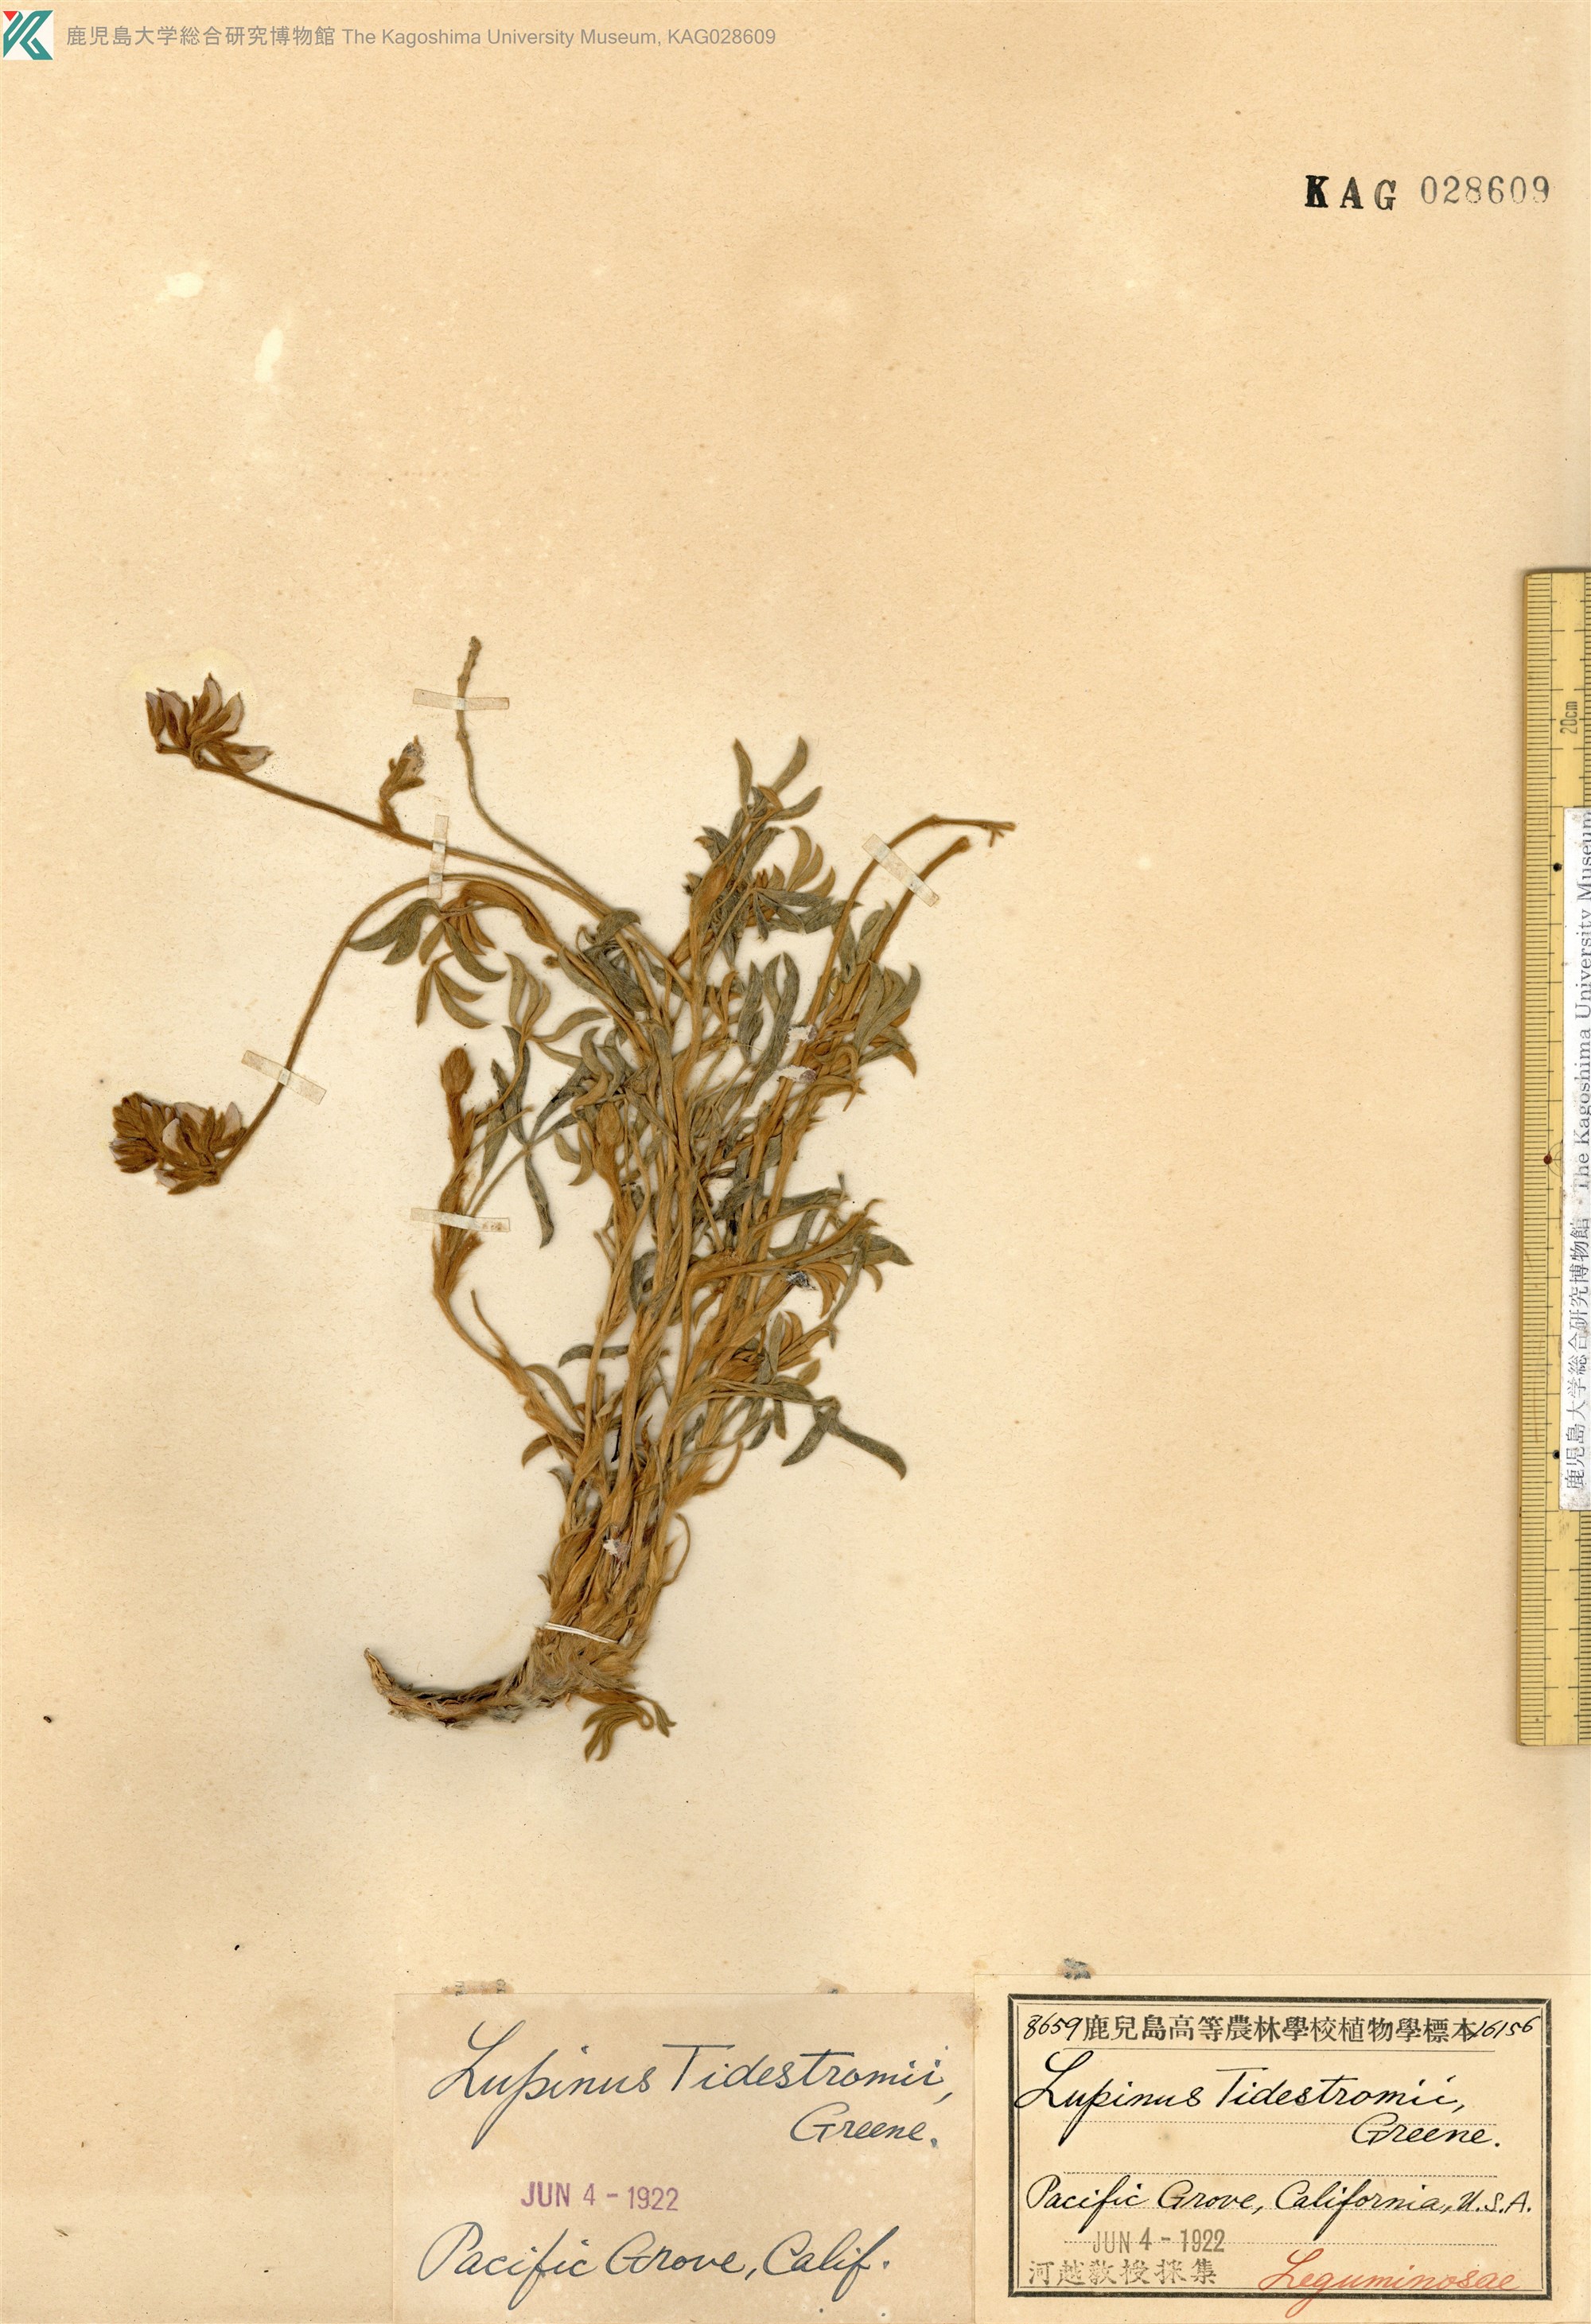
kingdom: Plantae
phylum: Tracheophyta
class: Magnoliopsida
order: Fabales
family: Fabaceae
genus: Lupinus
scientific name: Lupinus tidestromii
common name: Clover lupine
